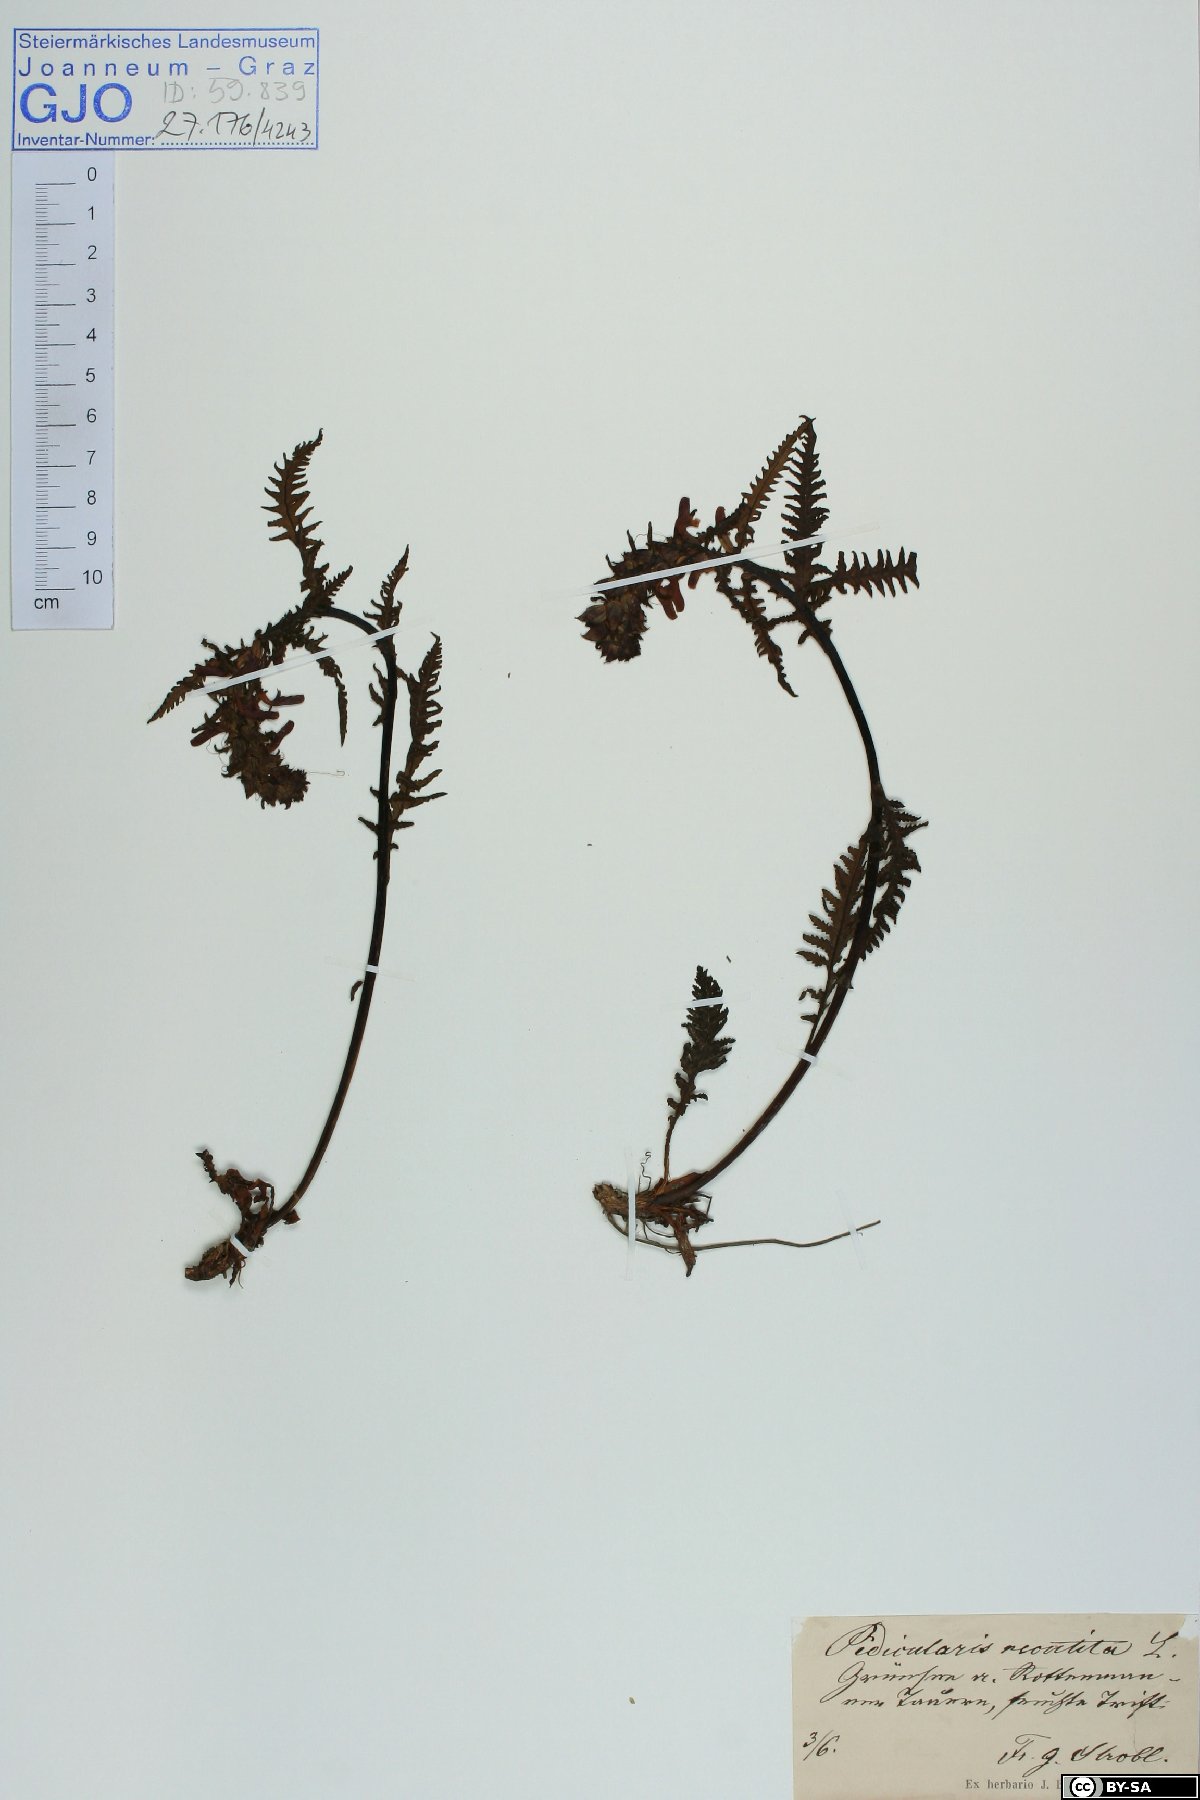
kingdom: Plantae
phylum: Tracheophyta
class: Magnoliopsida
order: Lamiales
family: Orobanchaceae
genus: Pedicularis
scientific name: Pedicularis recutita
